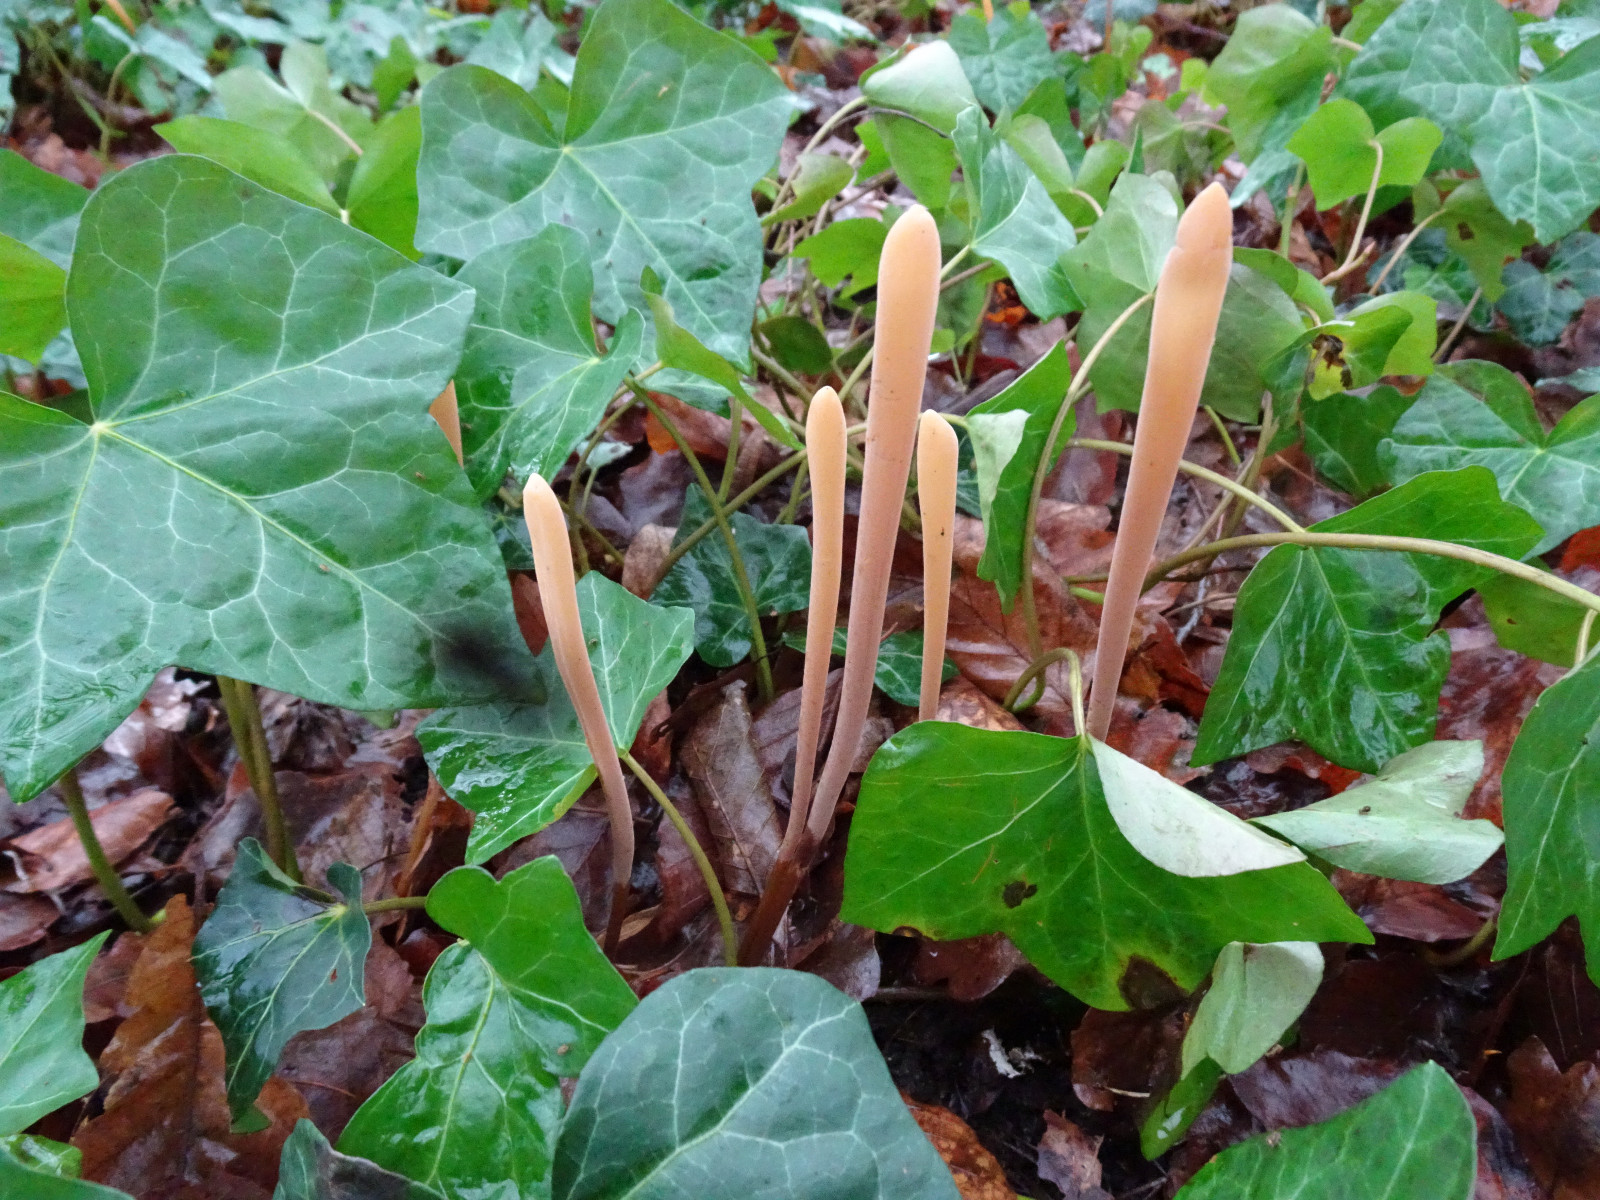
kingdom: Fungi
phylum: Basidiomycota
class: Agaricomycetes
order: Agaricales
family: Typhulaceae
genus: Typhula
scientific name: Typhula fistulosa
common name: pibet rørkølle
